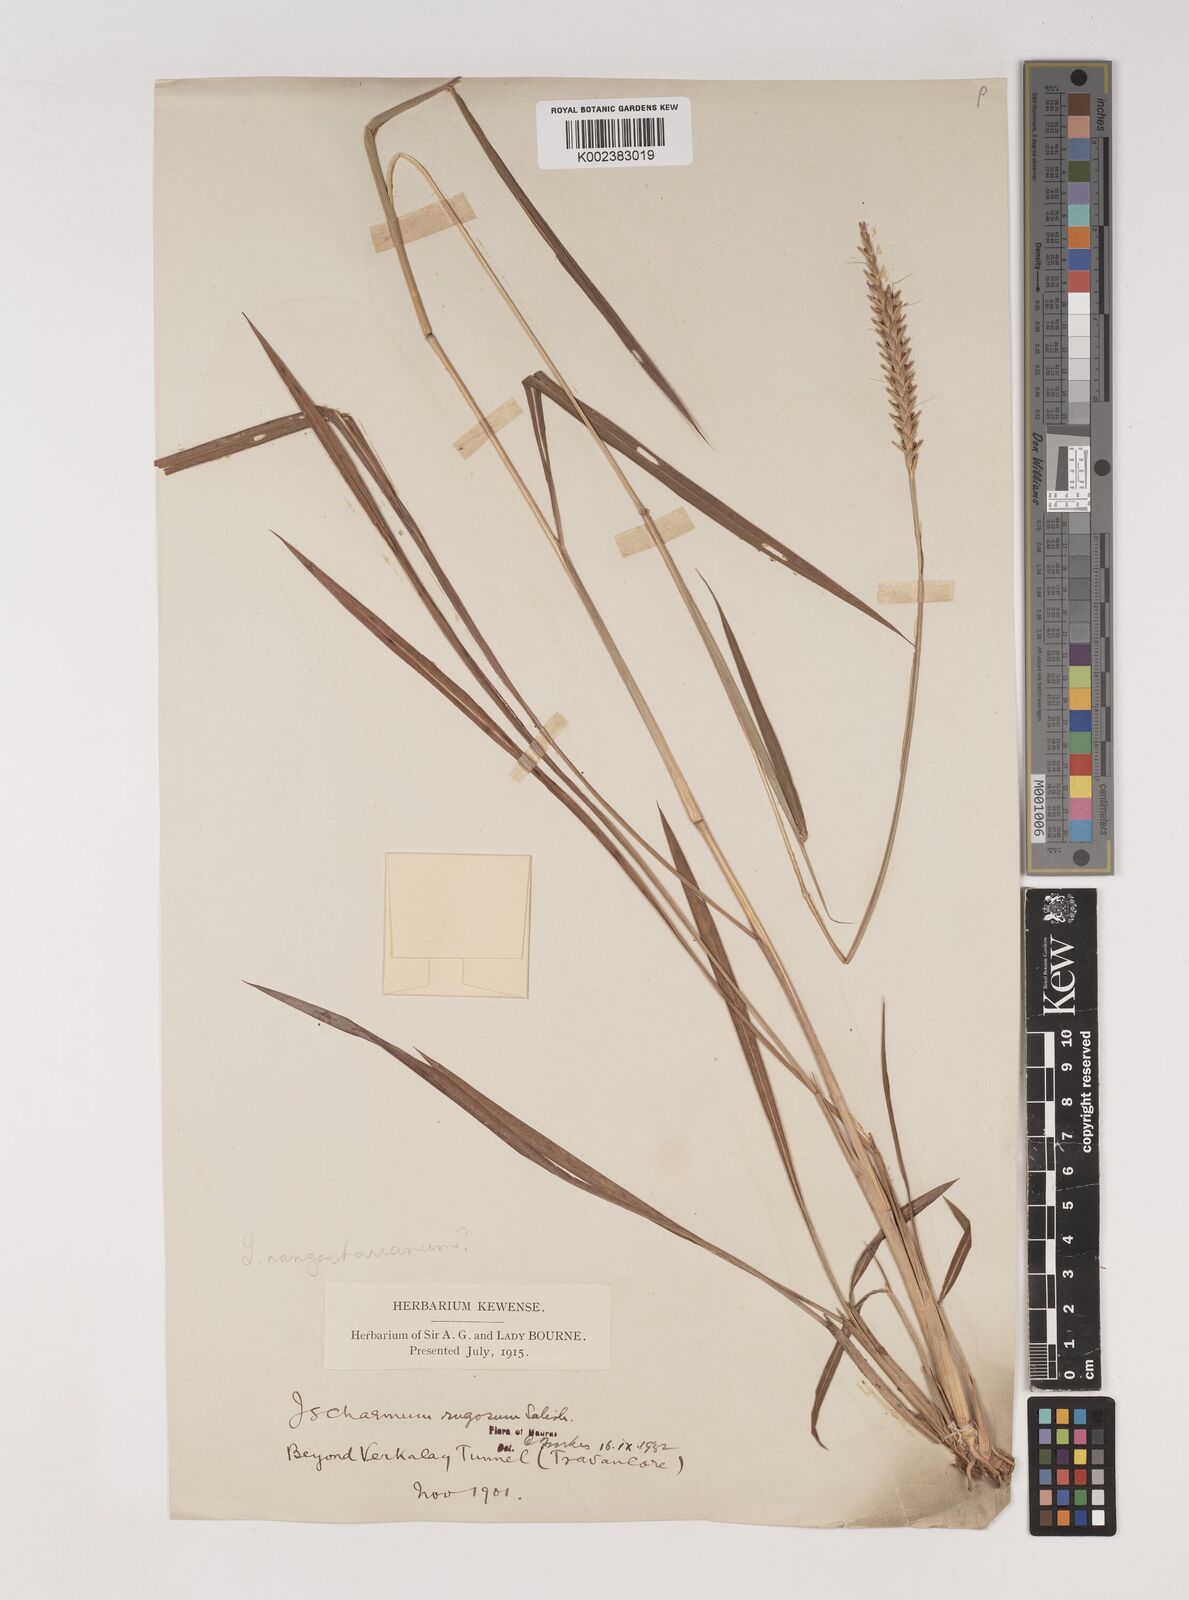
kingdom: Plantae
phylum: Tracheophyta
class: Liliopsida
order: Poales
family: Poaceae
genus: Ischaemum
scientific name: Ischaemum rugosum
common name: Saramatta grass
